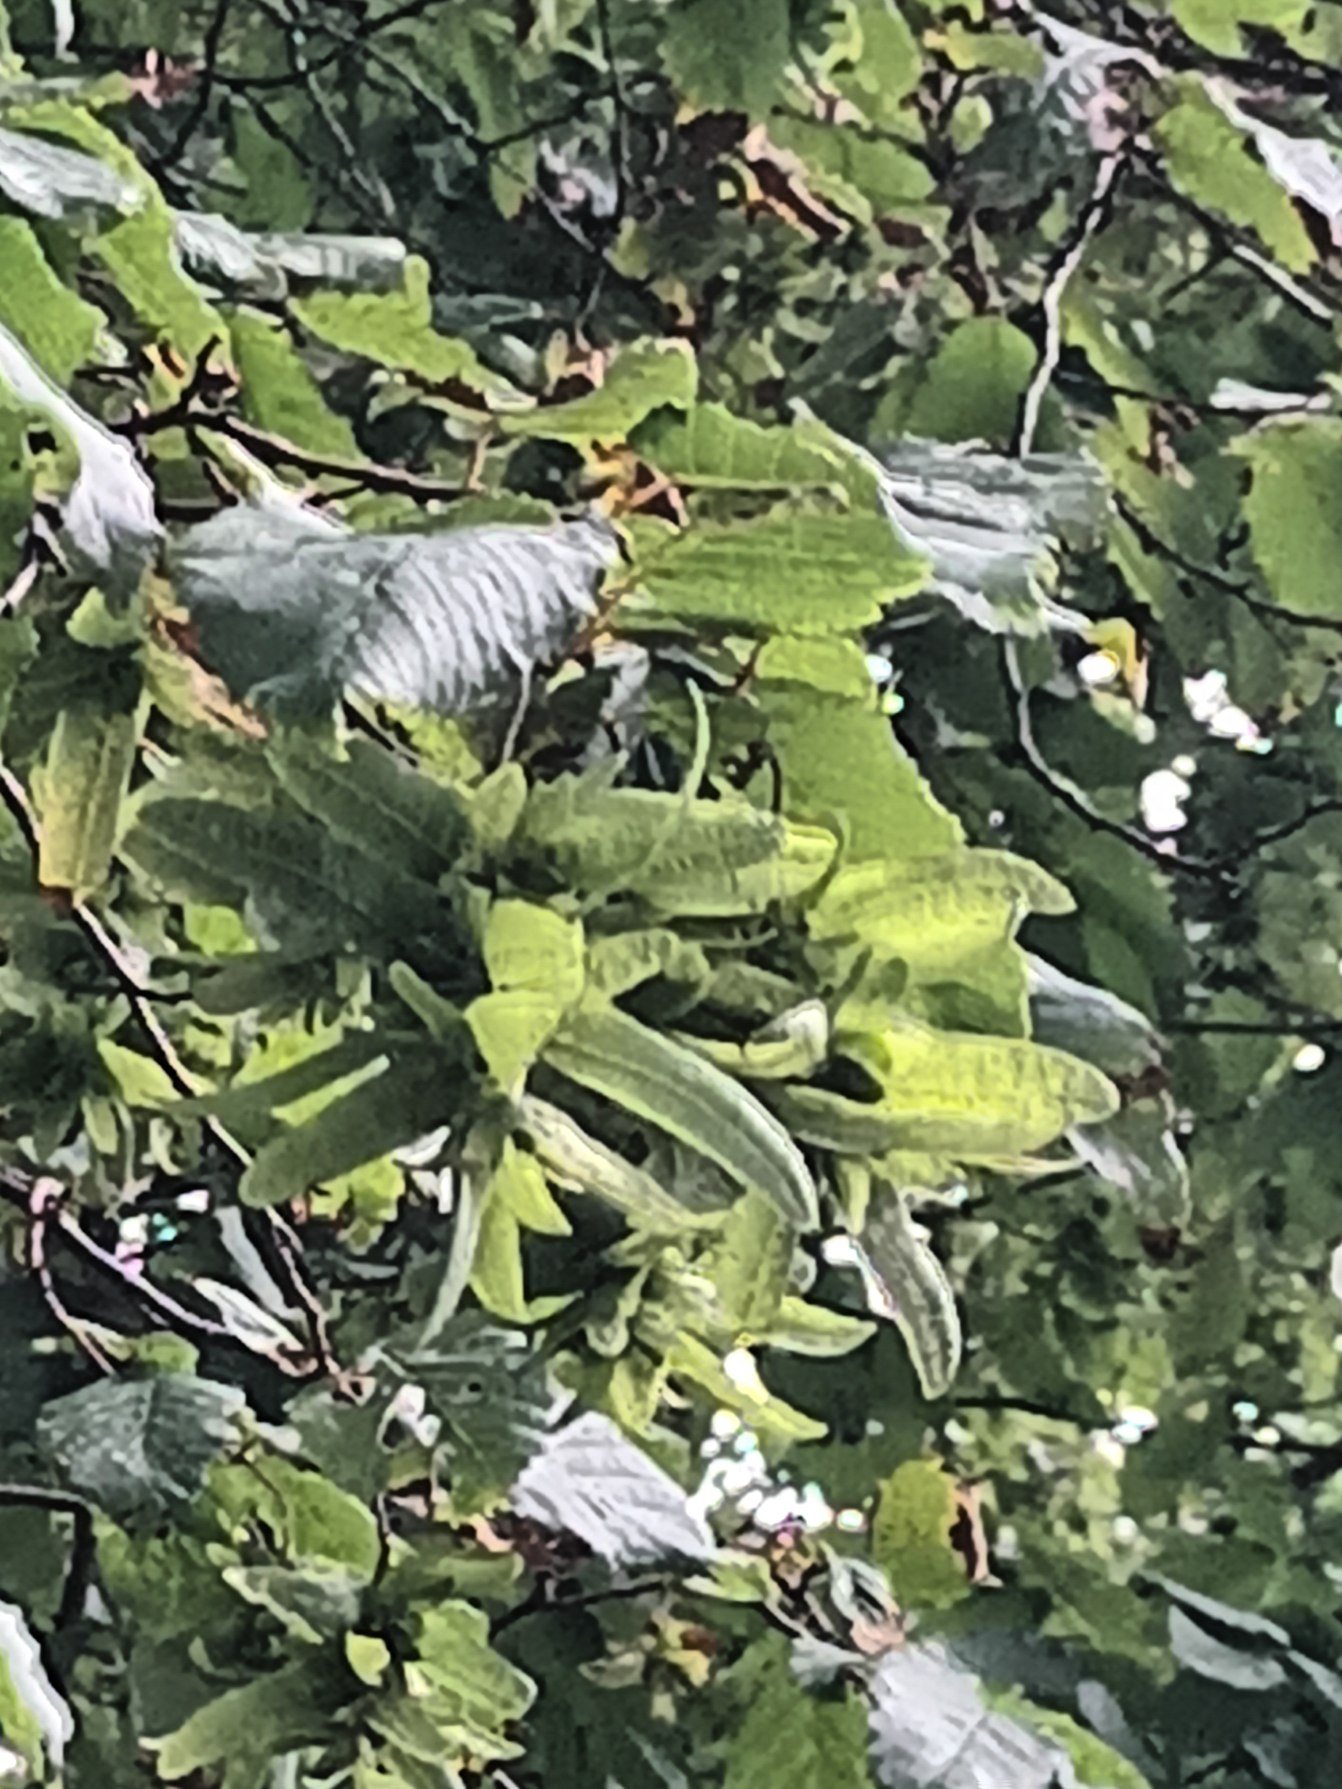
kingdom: Plantae
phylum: Tracheophyta
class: Magnoliopsida
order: Fagales
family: Betulaceae
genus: Carpinus
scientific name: Carpinus betulus
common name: Avnbøg
